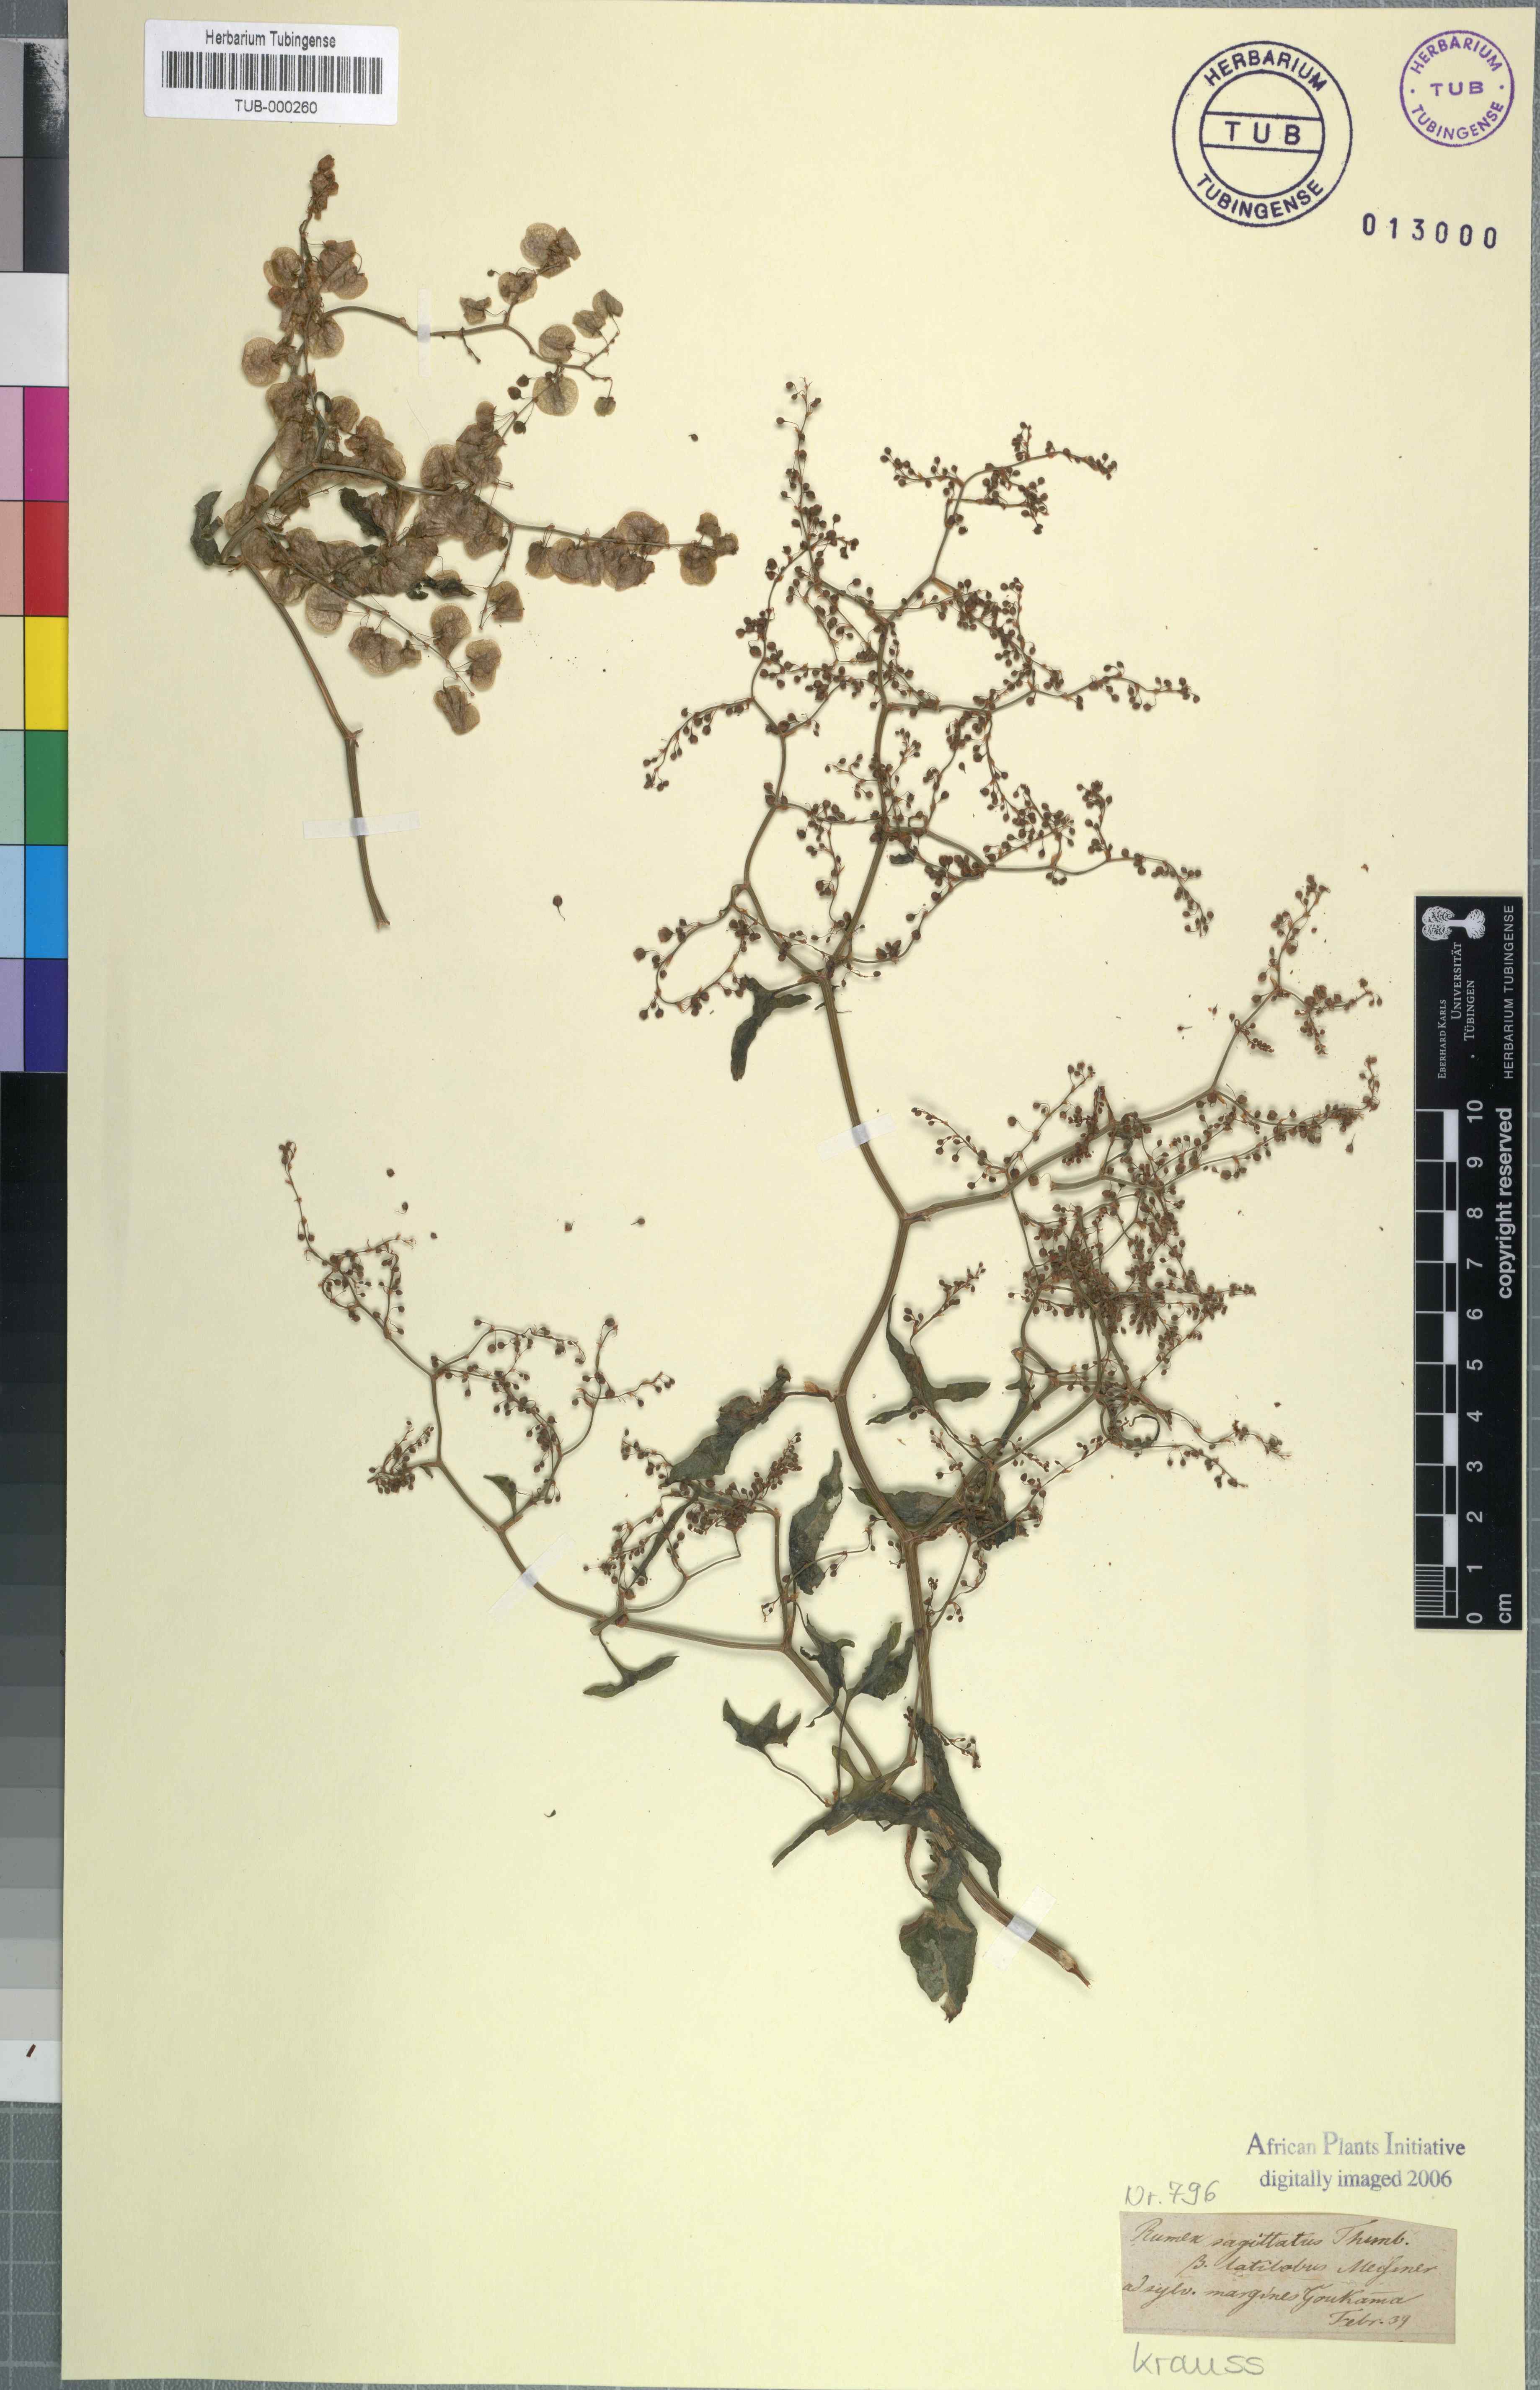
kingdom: Plantae
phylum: Tracheophyta
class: Magnoliopsida
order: Caryophyllales
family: Polygonaceae
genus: Rumex
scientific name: Rumex sagittatus
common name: Climbing dock
